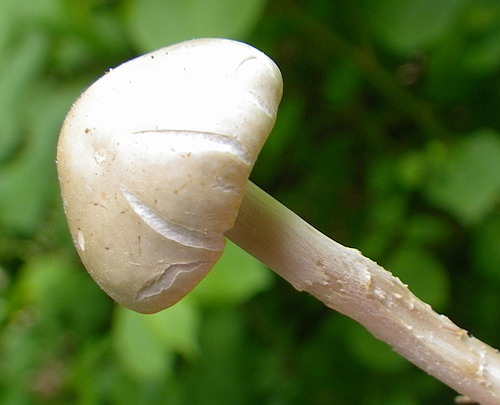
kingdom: Fungi
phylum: Basidiomycota
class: Agaricomycetes
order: Agaricales
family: Strophariaceae
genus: Agrocybe
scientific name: Agrocybe dura
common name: fastkødet agerhat
